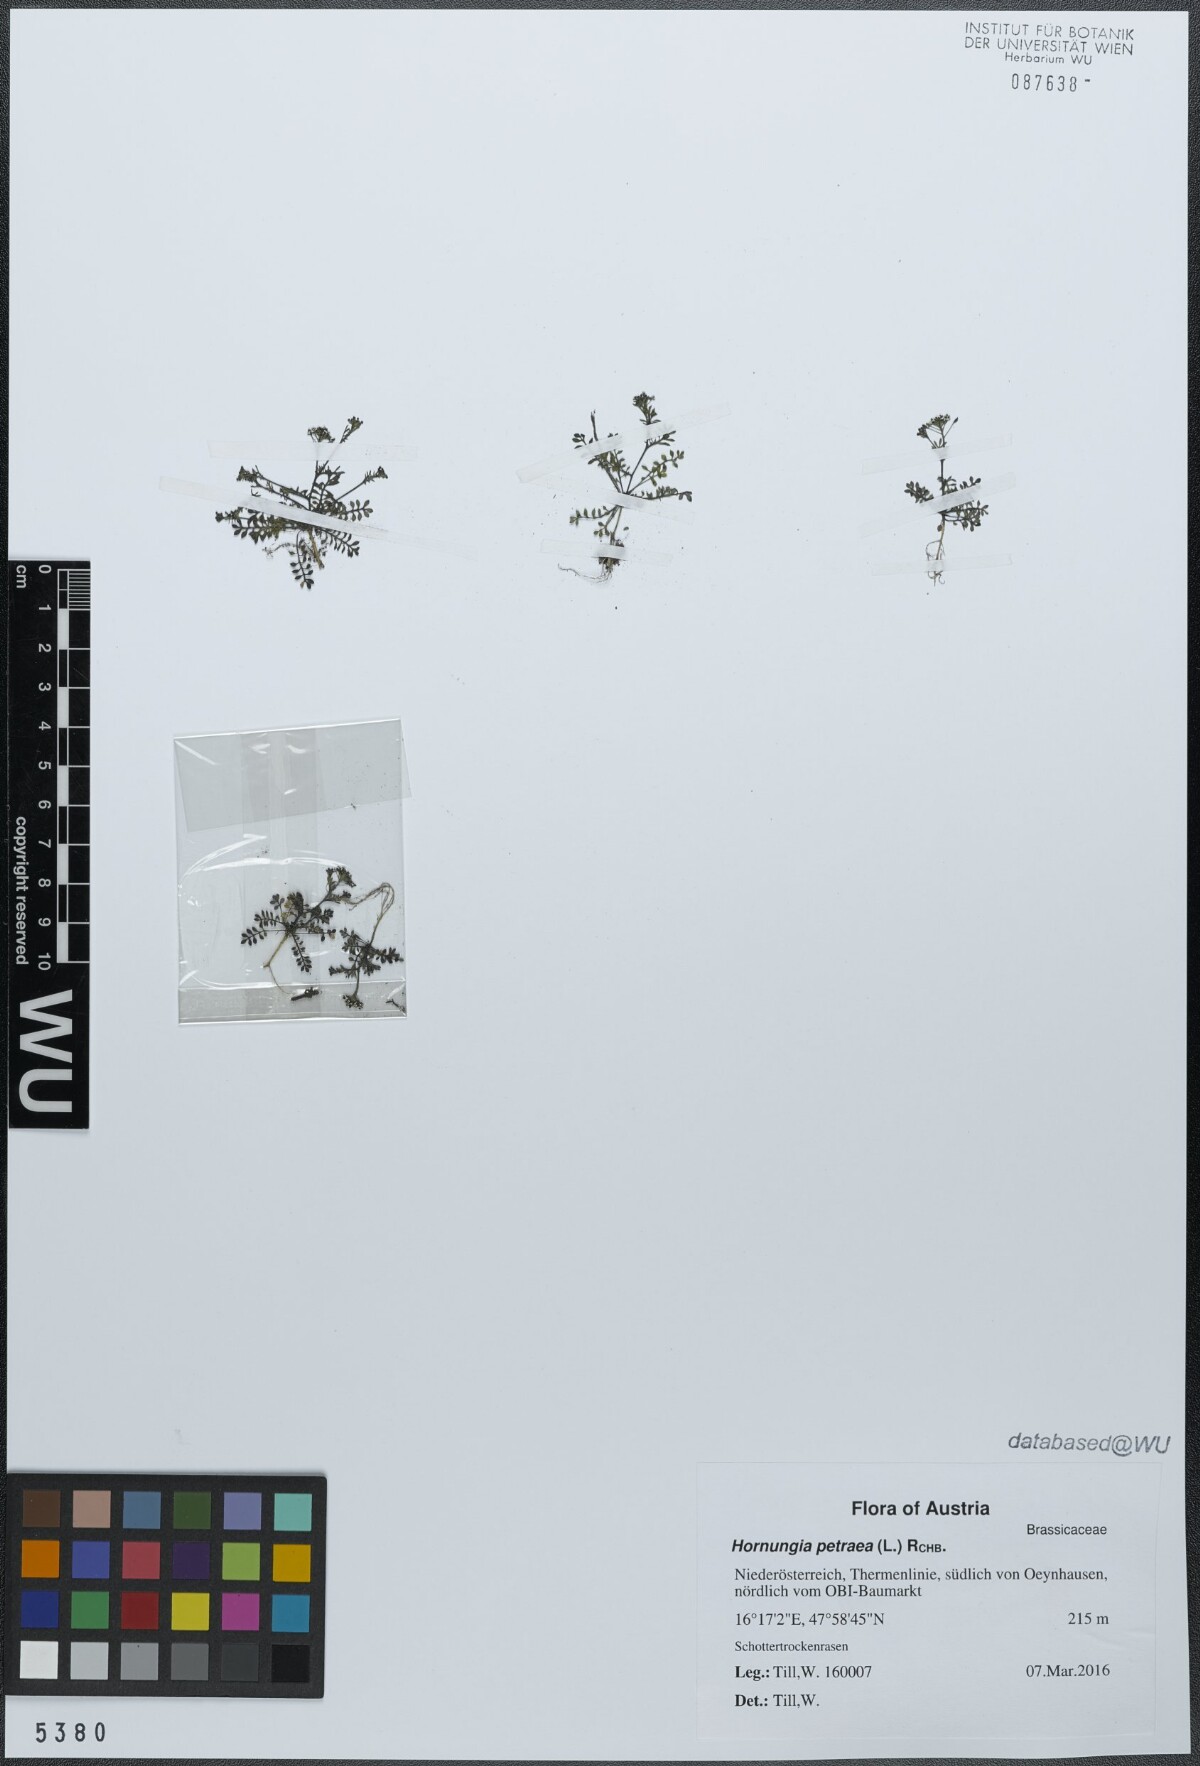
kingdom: Plantae
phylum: Tracheophyta
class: Magnoliopsida
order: Brassicales
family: Brassicaceae
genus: Hornungia
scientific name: Hornungia petraea
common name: Hutchinsia
